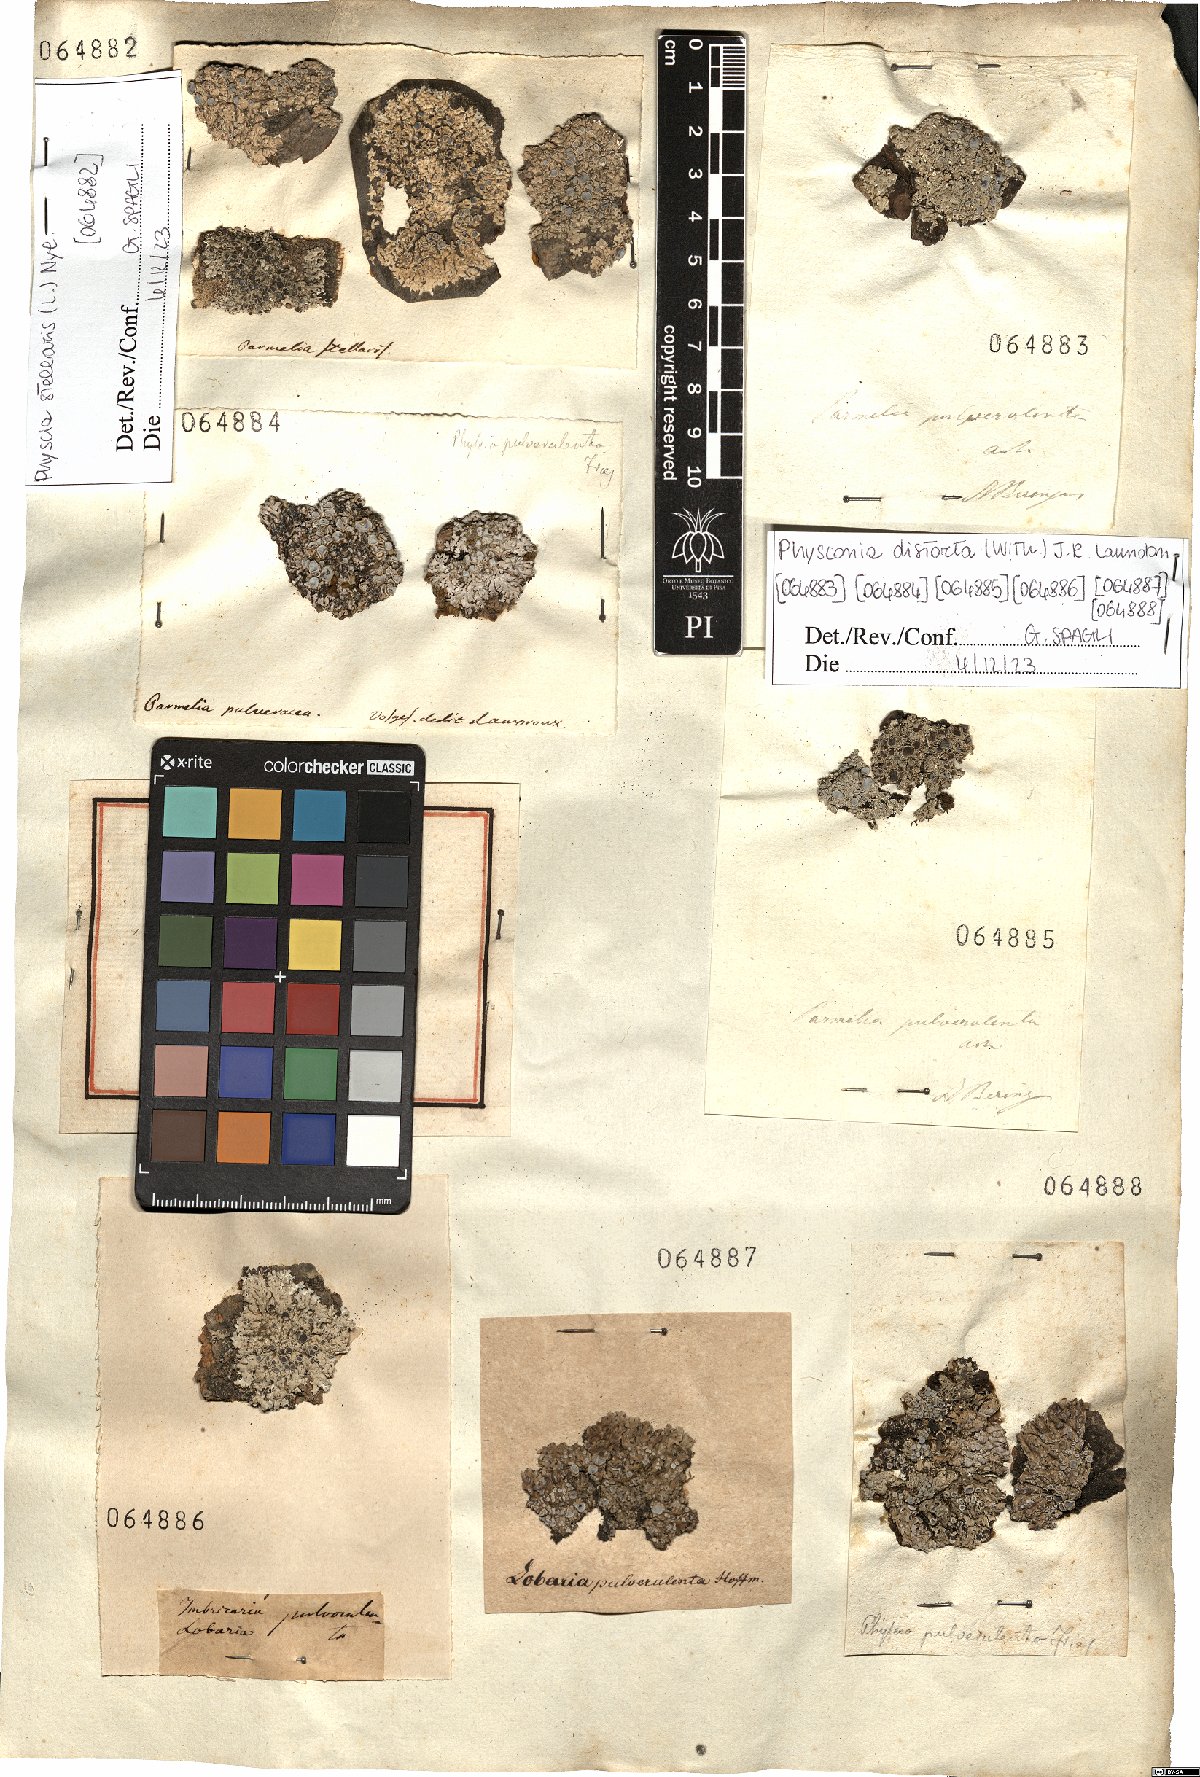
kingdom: Fungi
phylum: Ascomycota
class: Lecanoromycetes
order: Caliciales
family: Physciaceae
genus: Physconia
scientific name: Physconia distorta
